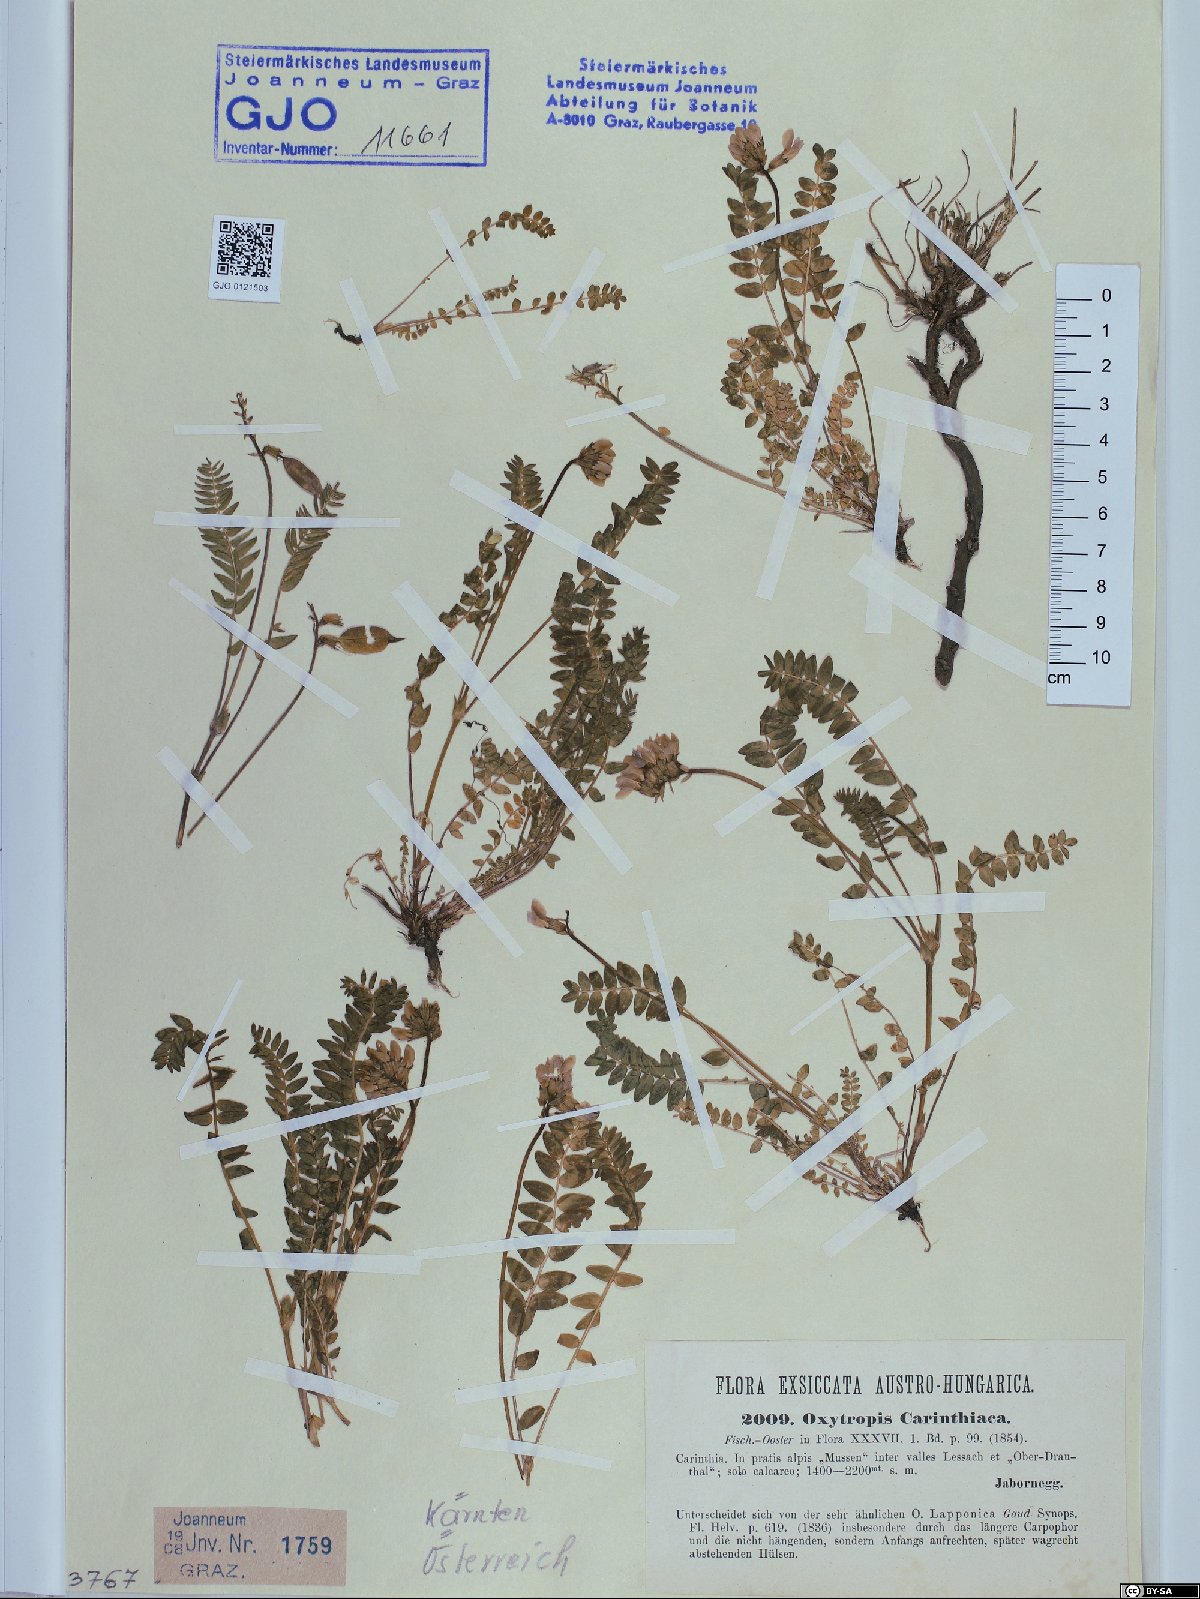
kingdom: Plantae
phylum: Tracheophyta
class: Magnoliopsida
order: Fabales
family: Fabaceae
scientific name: Fabaceae
